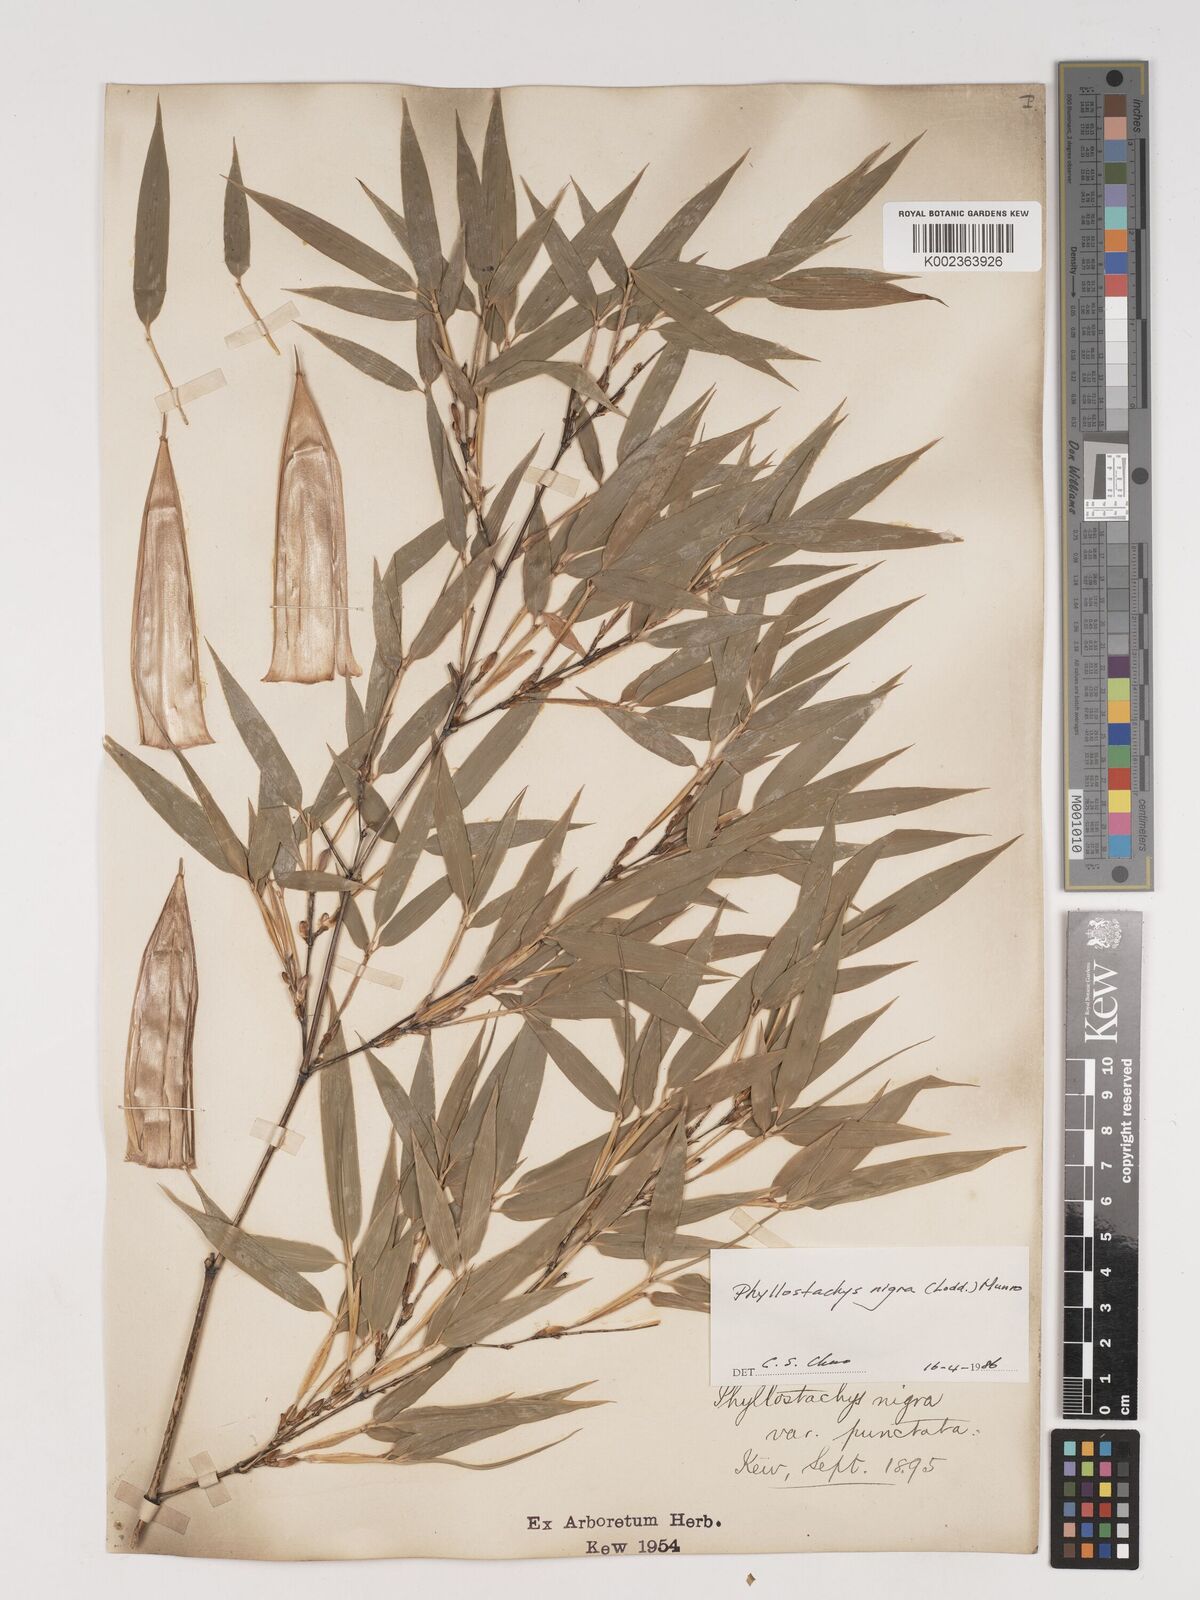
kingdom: Plantae
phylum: Tracheophyta
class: Liliopsida
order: Poales
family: Poaceae
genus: Phyllostachys
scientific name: Phyllostachys nigra
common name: Black bamboo
